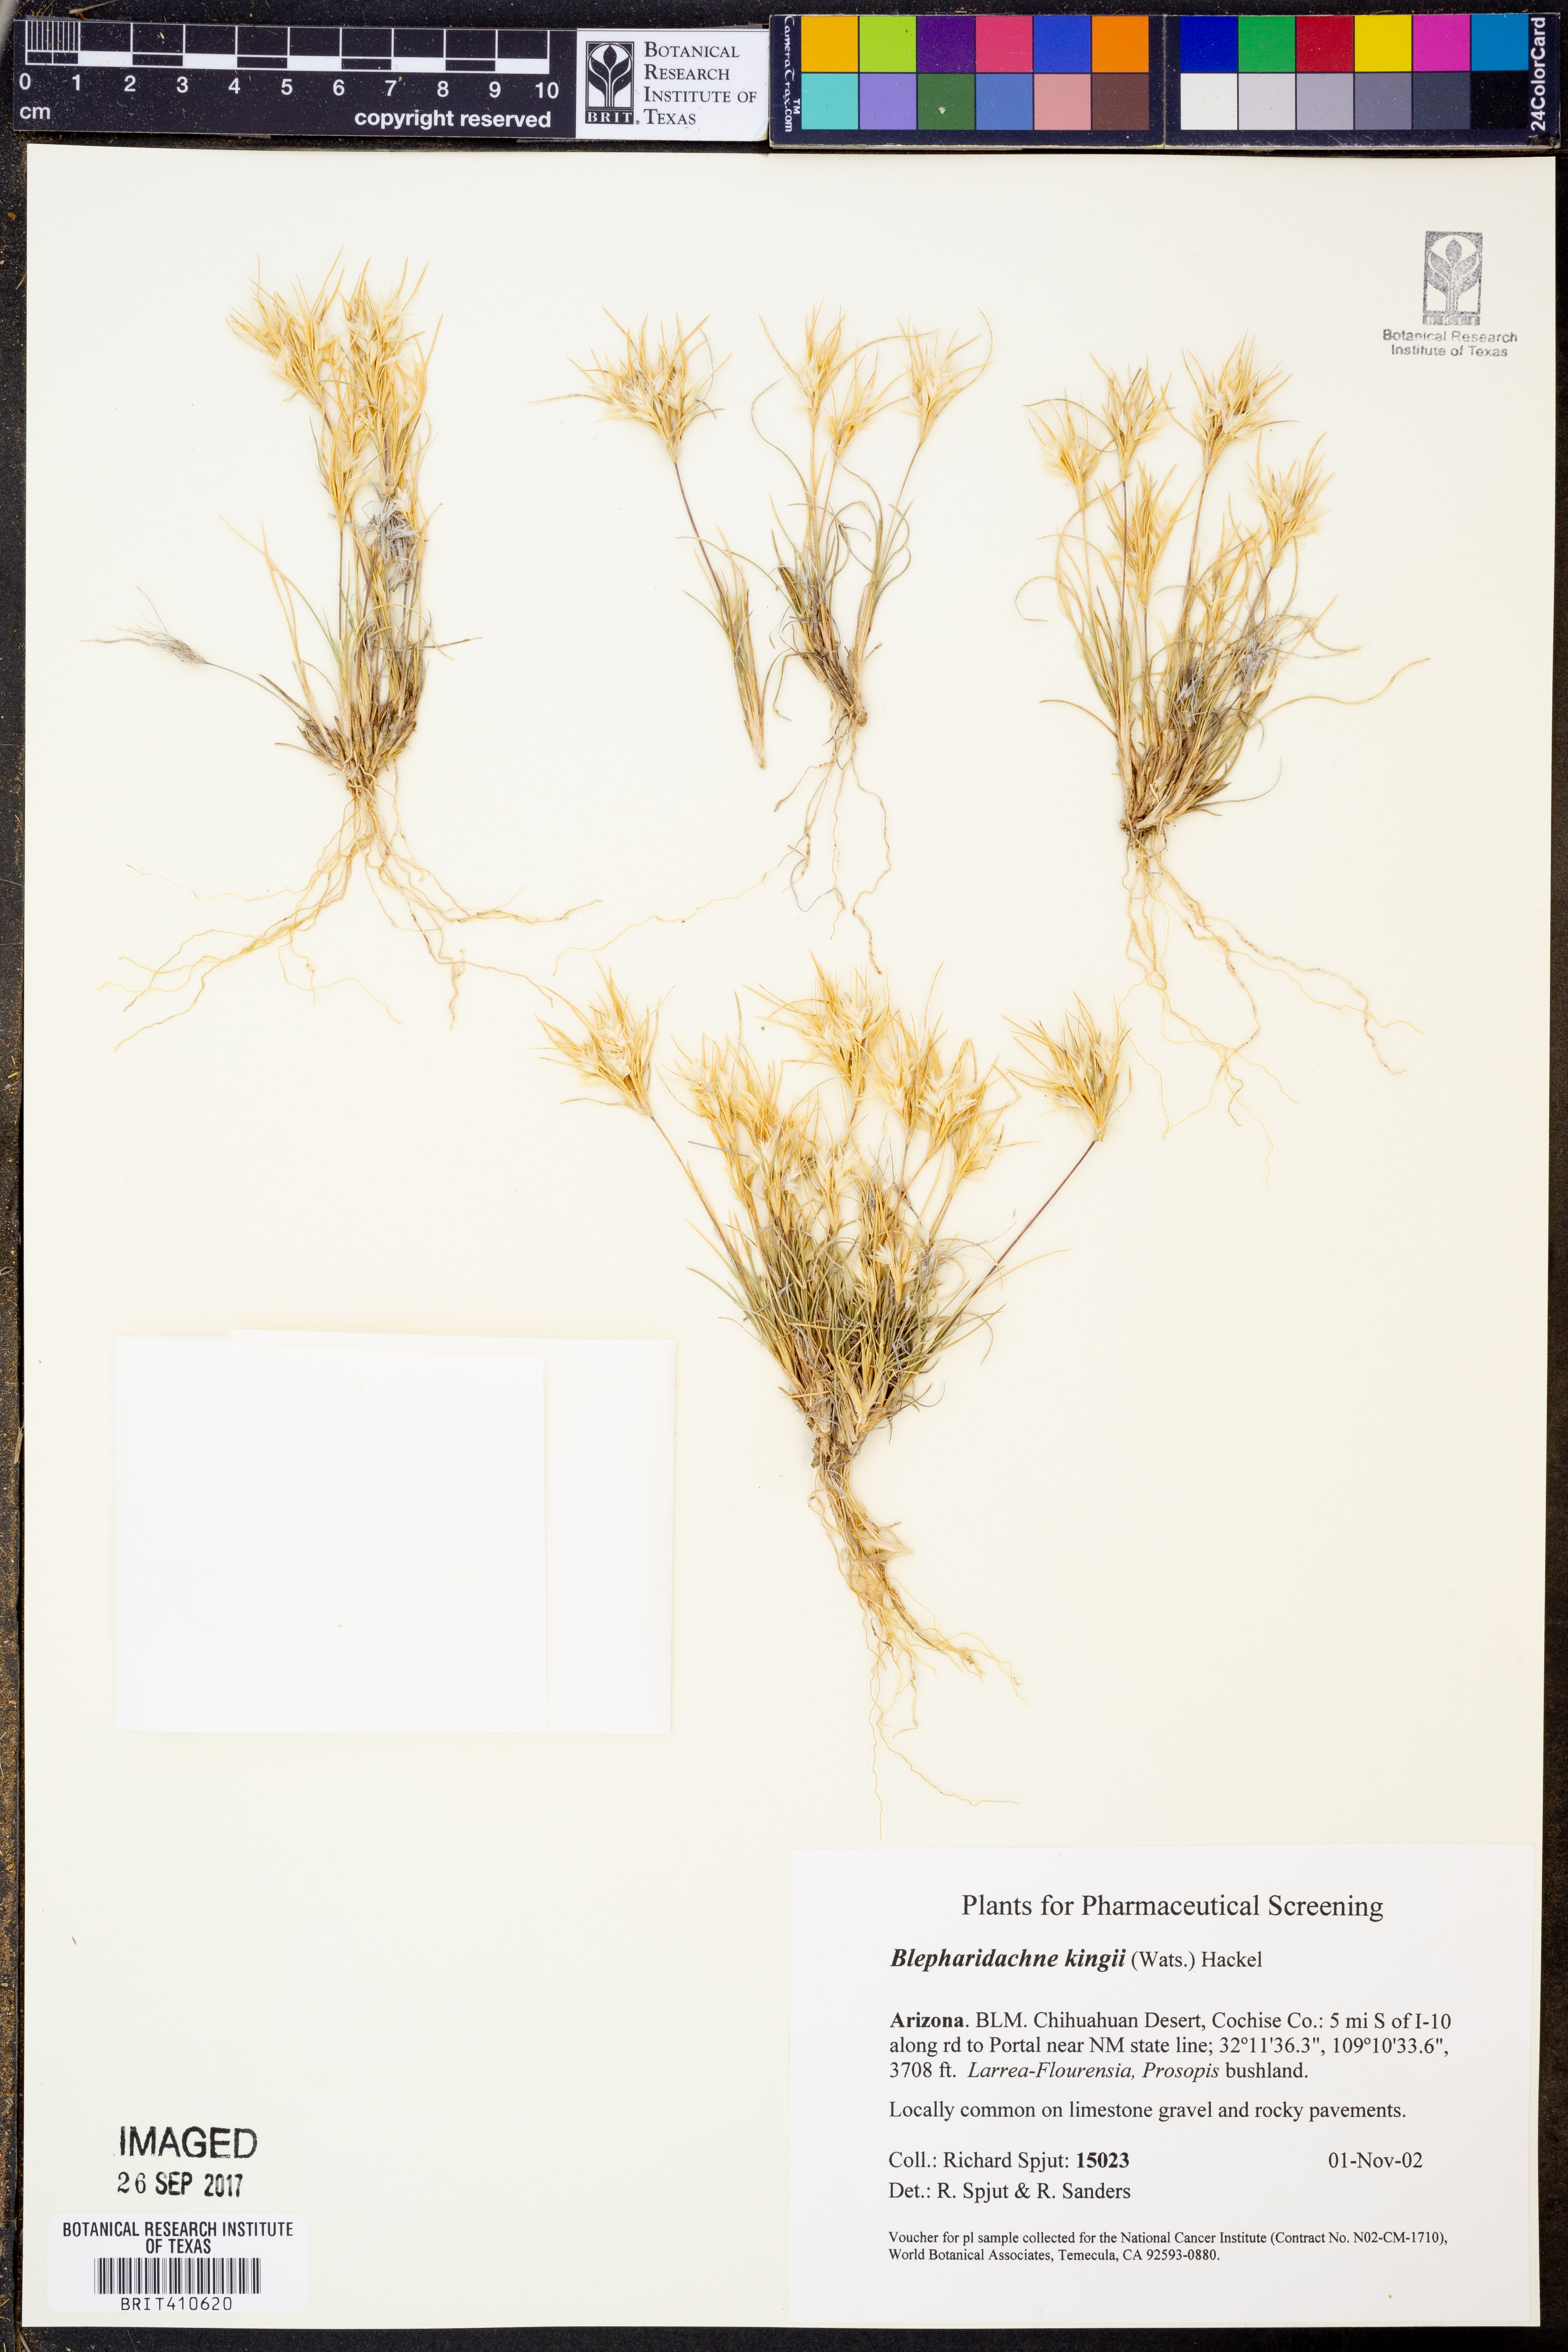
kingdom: Plantae
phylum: Tracheophyta
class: Liliopsida
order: Poales
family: Poaceae
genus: Blepharidachne
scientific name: Blepharidachne kingii
